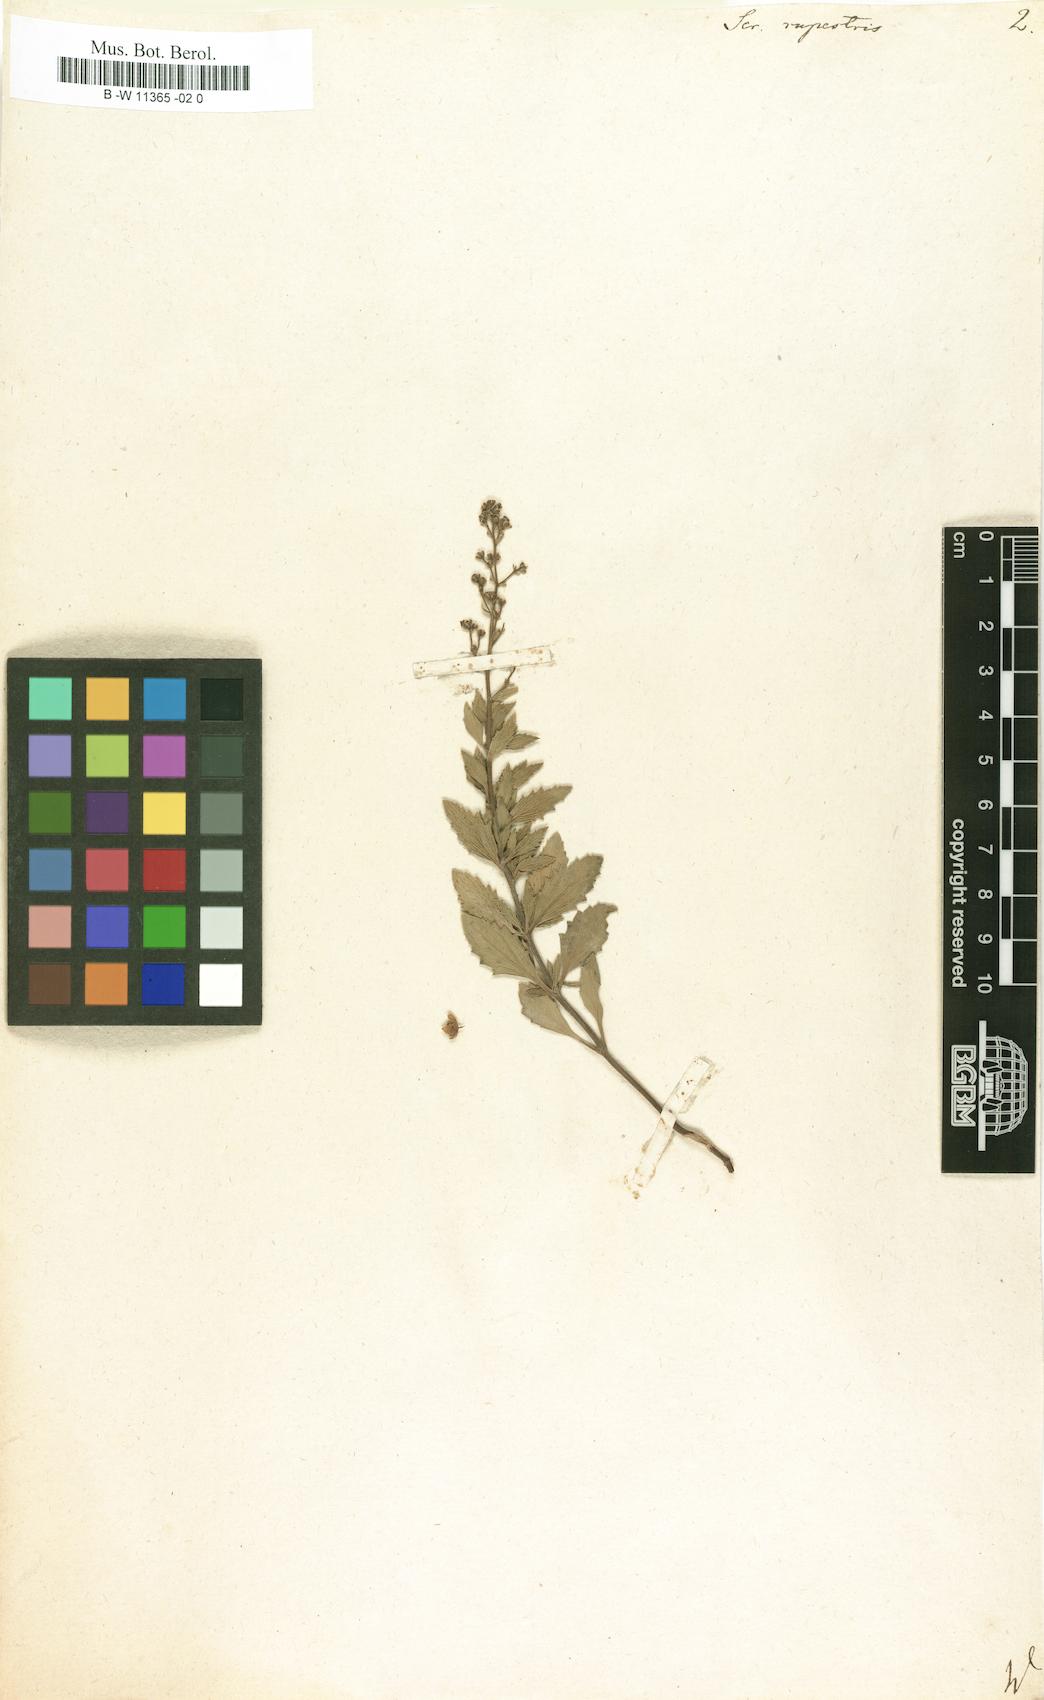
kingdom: Plantae
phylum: Tracheophyta
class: Magnoliopsida
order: Lamiales
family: Scrophulariaceae
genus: Scrophularia
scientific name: Scrophularia rupestris
